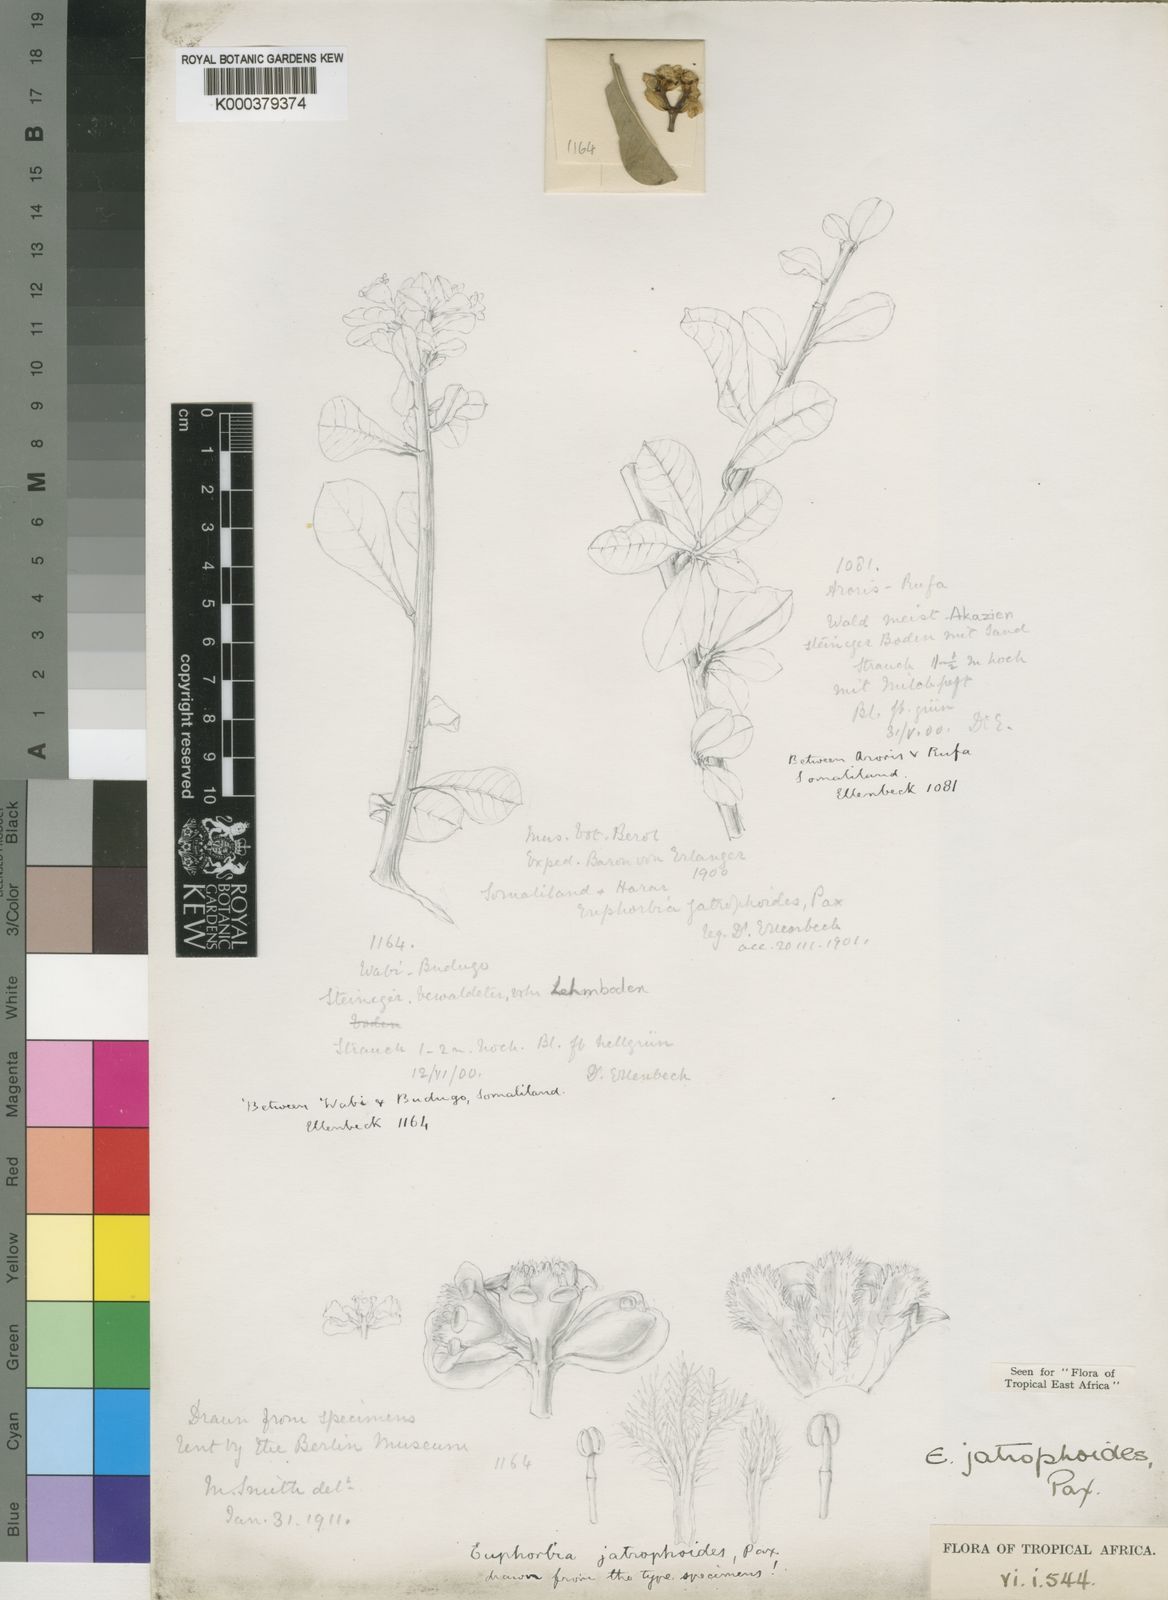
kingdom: Plantae
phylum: Tracheophyta
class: Magnoliopsida
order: Malpighiales
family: Euphorbiaceae
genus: Euphorbia
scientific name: Euphorbia jatrophoides
